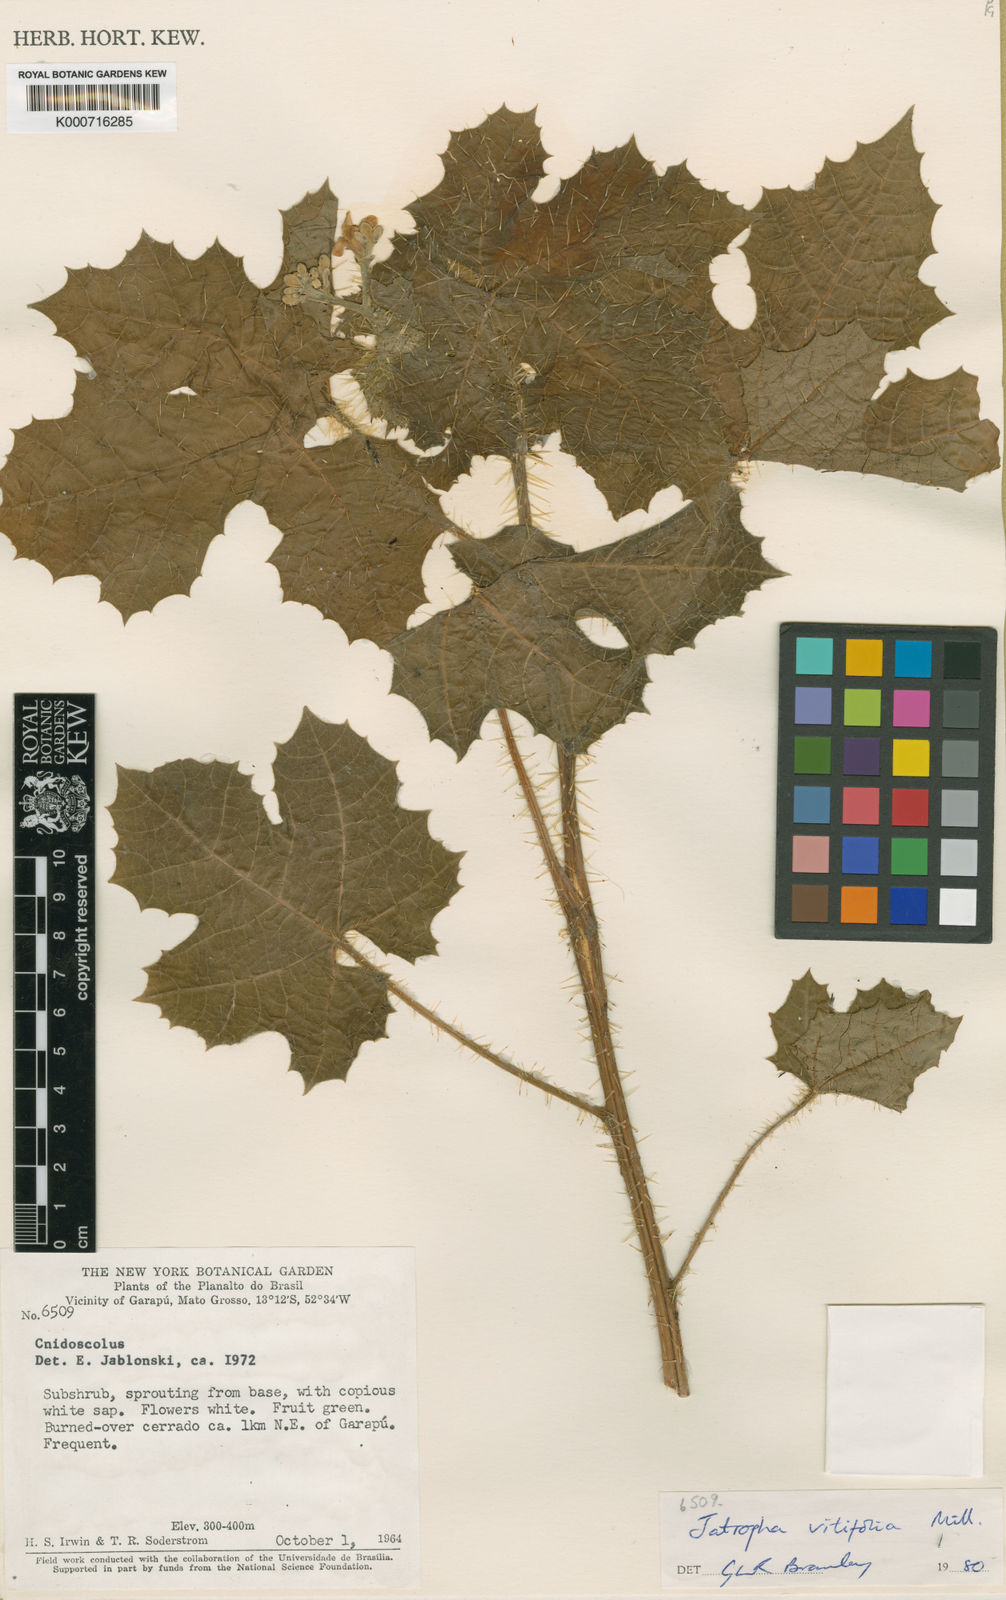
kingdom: Plantae
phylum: Tracheophyta
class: Magnoliopsida
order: Malpighiales
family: Euphorbiaceae
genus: Cnidoscolus
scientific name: Cnidoscolus vitifolius
